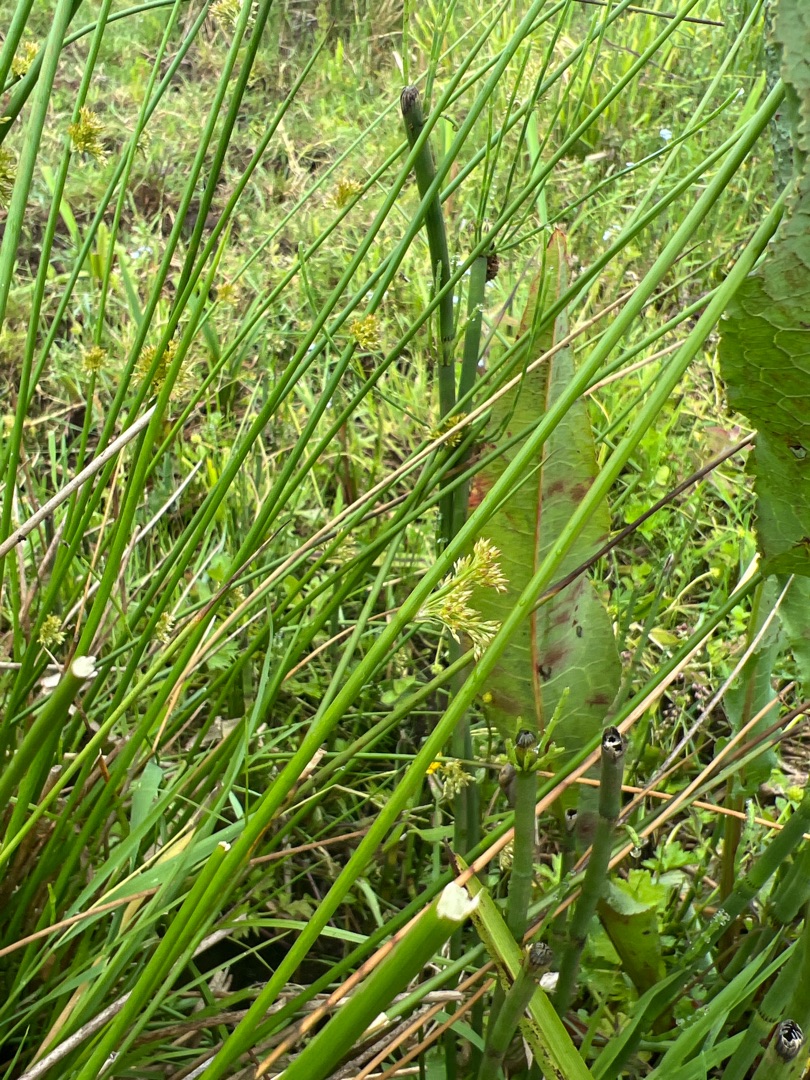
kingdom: Plantae
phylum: Tracheophyta
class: Liliopsida
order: Poales
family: Juncaceae
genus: Juncus
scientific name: Juncus effusus
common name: Lyse-siv
